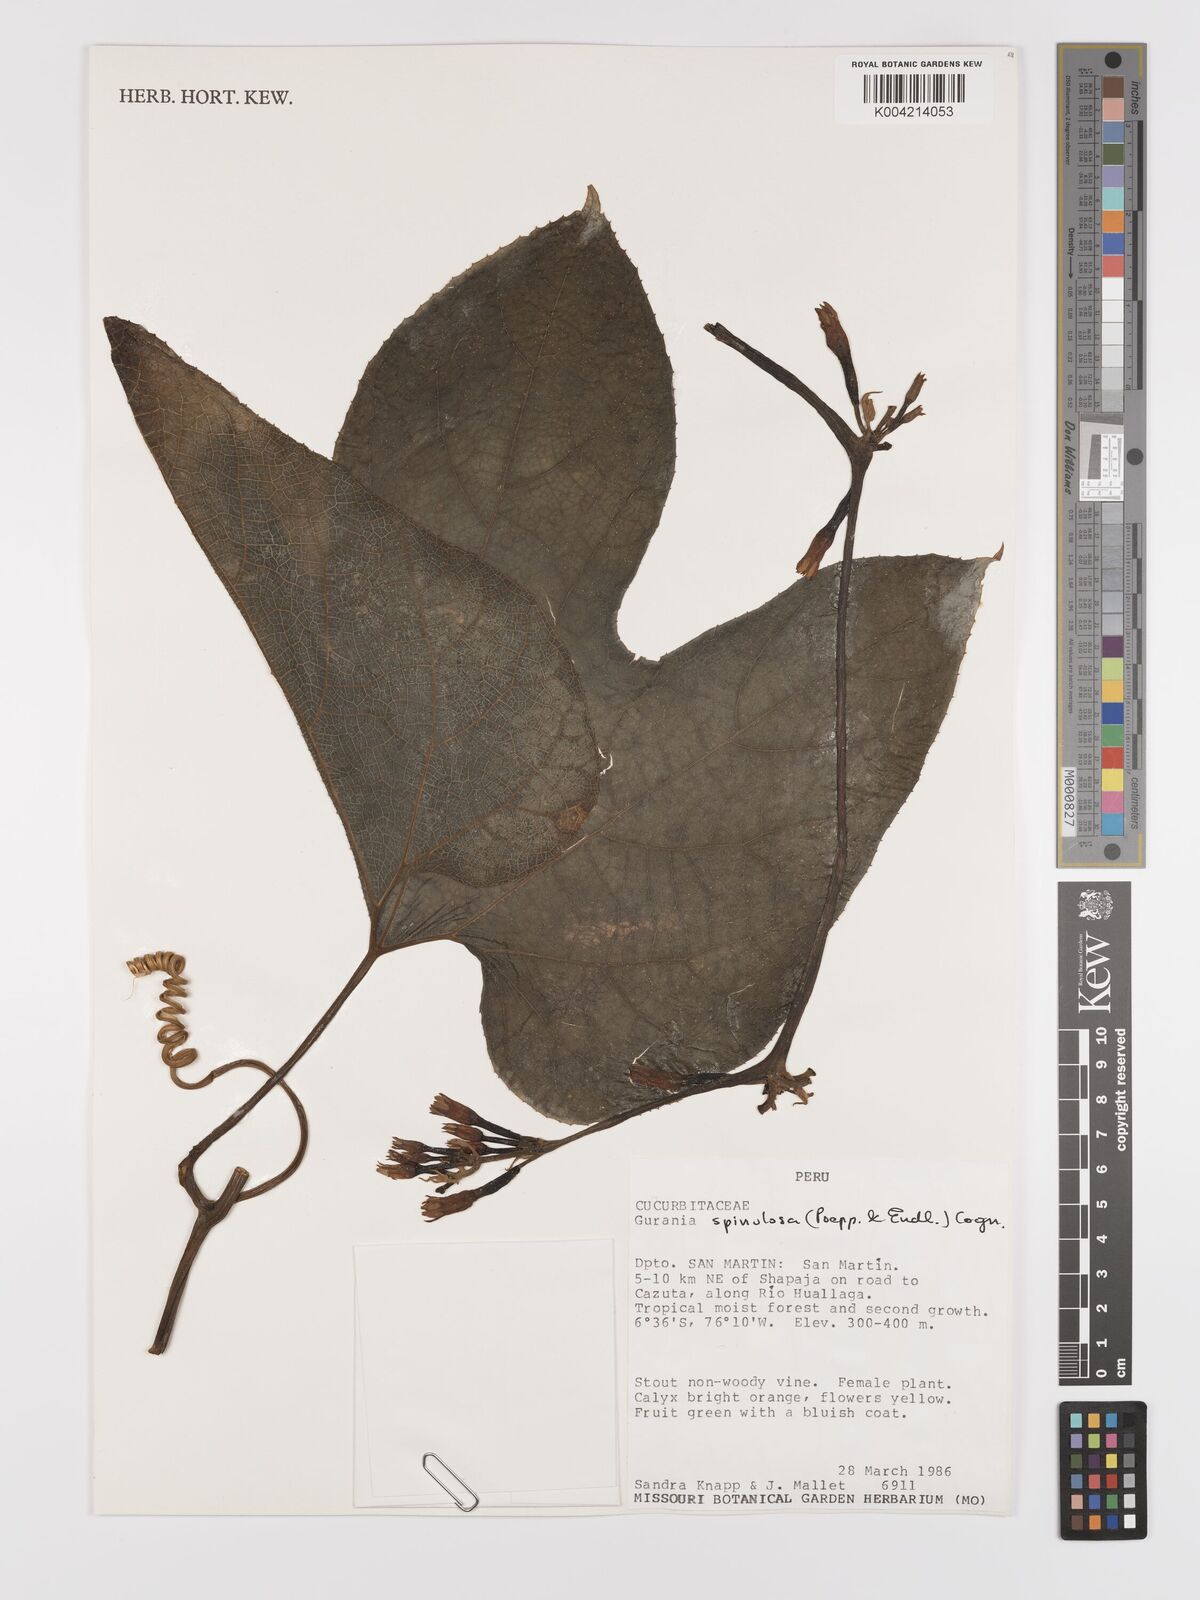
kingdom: Plantae
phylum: Tracheophyta
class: Magnoliopsida
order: Cucurbitales
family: Cucurbitaceae
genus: Gurania
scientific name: Gurania lobata
